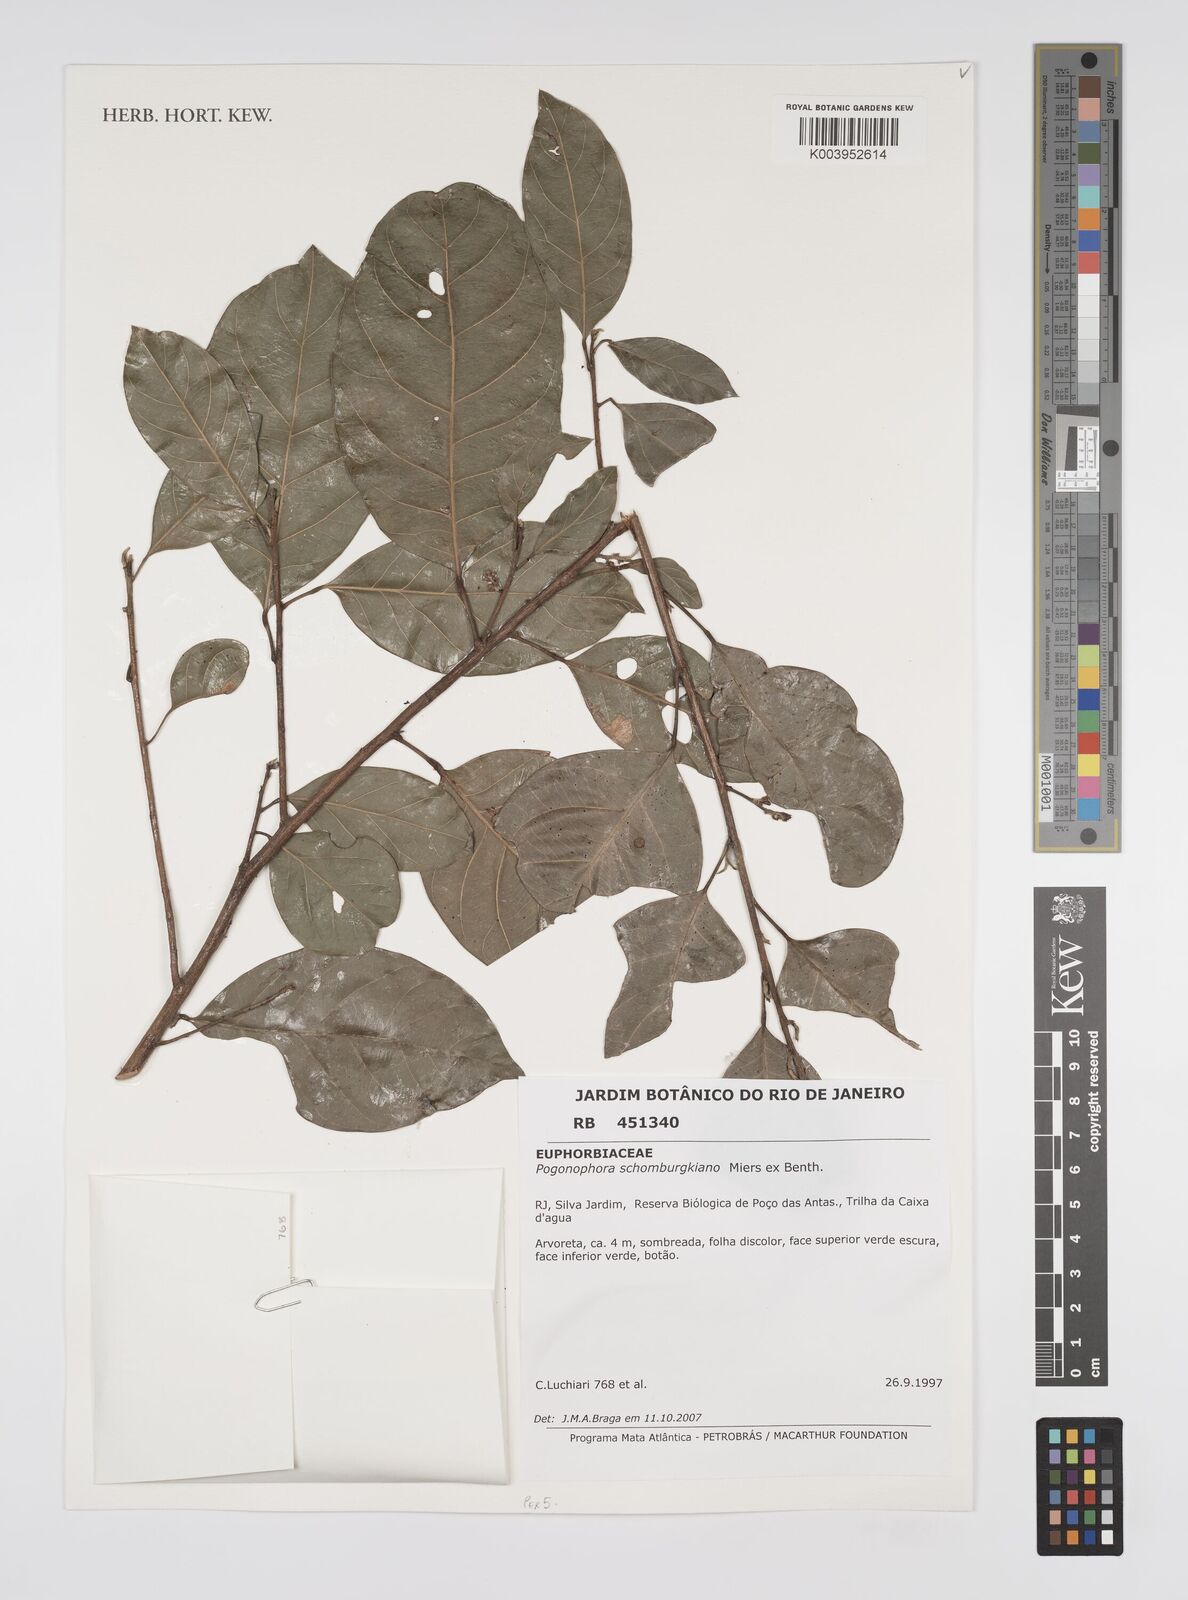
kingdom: Plantae
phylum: Tracheophyta
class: Magnoliopsida
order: Malpighiales
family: Peraceae
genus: Pogonophora
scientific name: Pogonophora schomburgkiana
